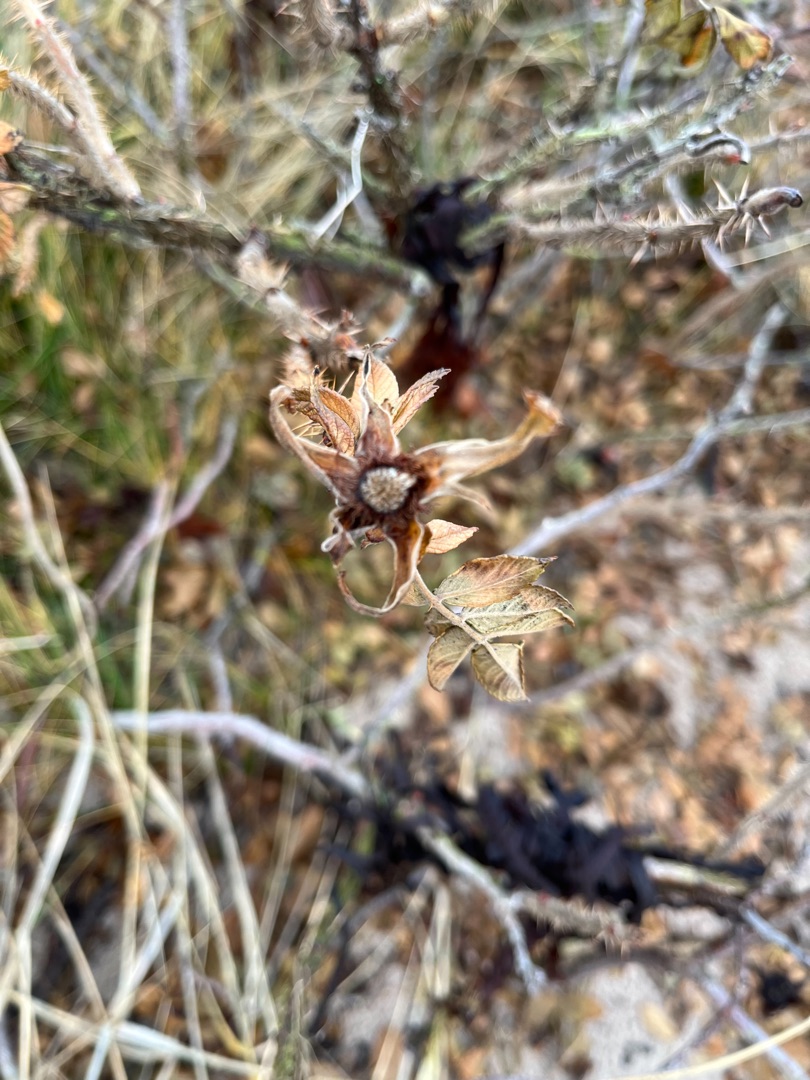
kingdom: Plantae
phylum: Tracheophyta
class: Magnoliopsida
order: Rosales
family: Rosaceae
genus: Rosa
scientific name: Rosa rugosa
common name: Rynket rose
